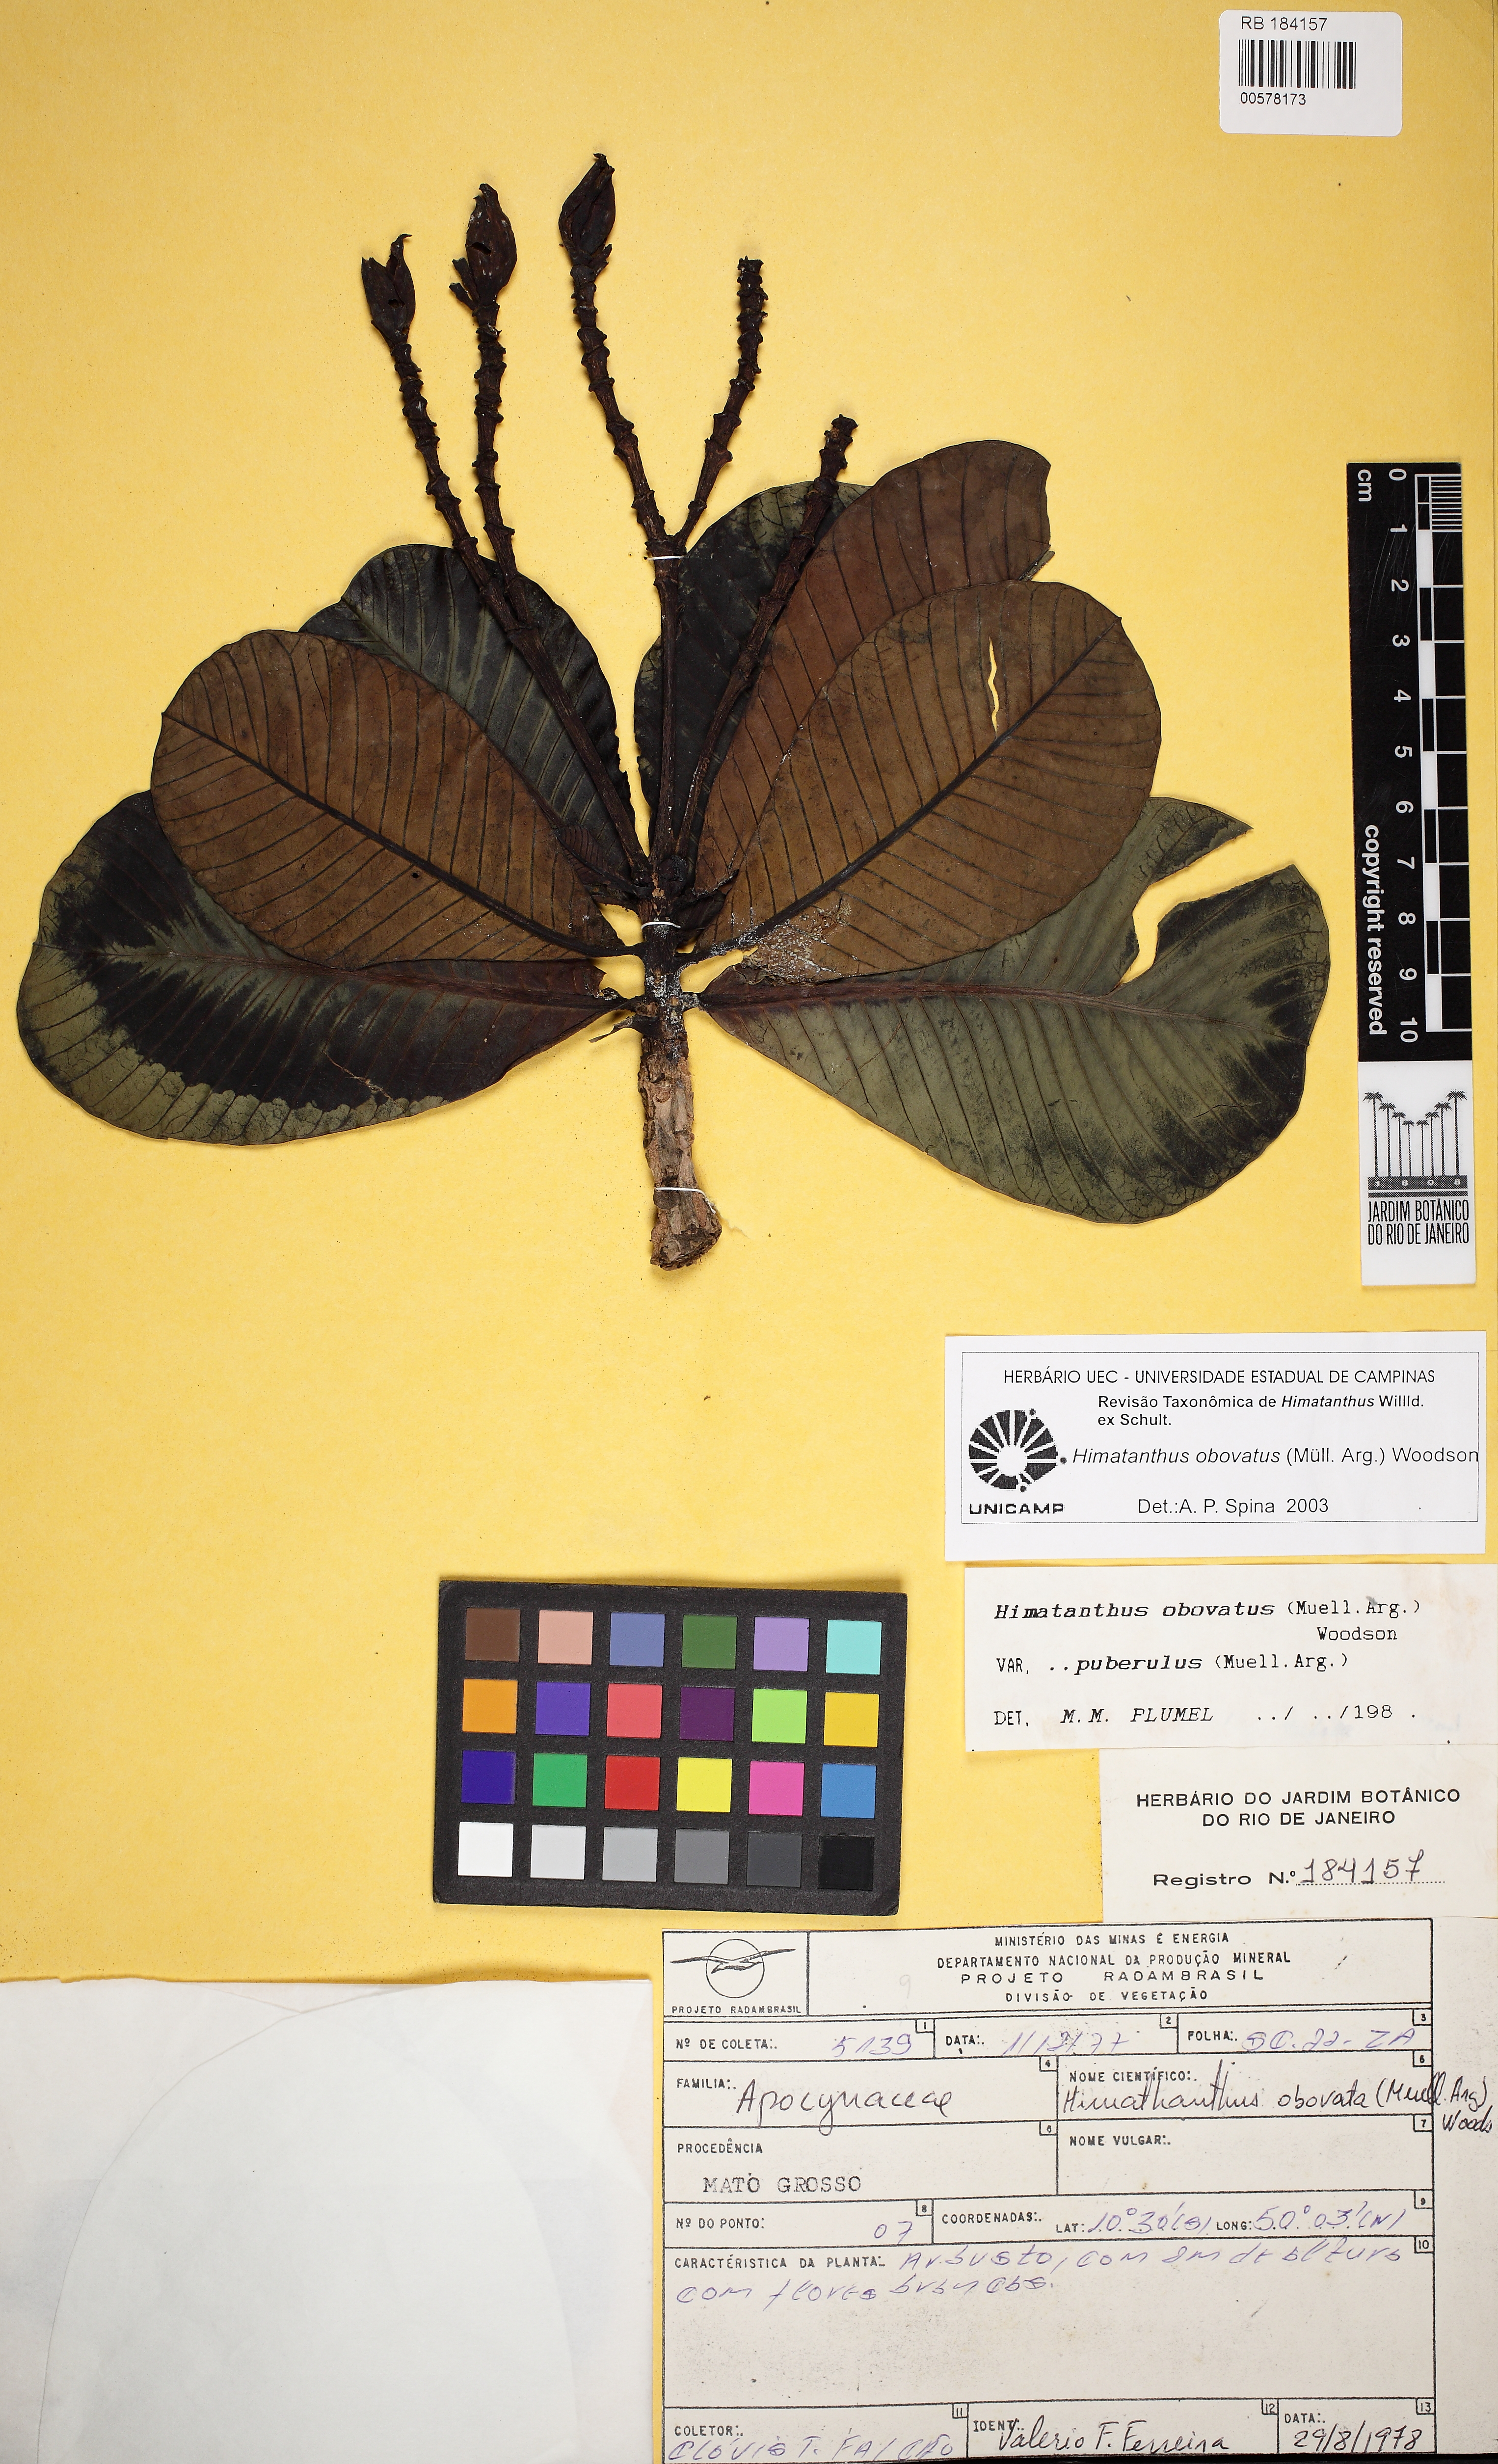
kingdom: Plantae
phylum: Tracheophyta
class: Magnoliopsida
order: Gentianales
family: Apocynaceae
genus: Himatanthus
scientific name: Himatanthus obovatus
